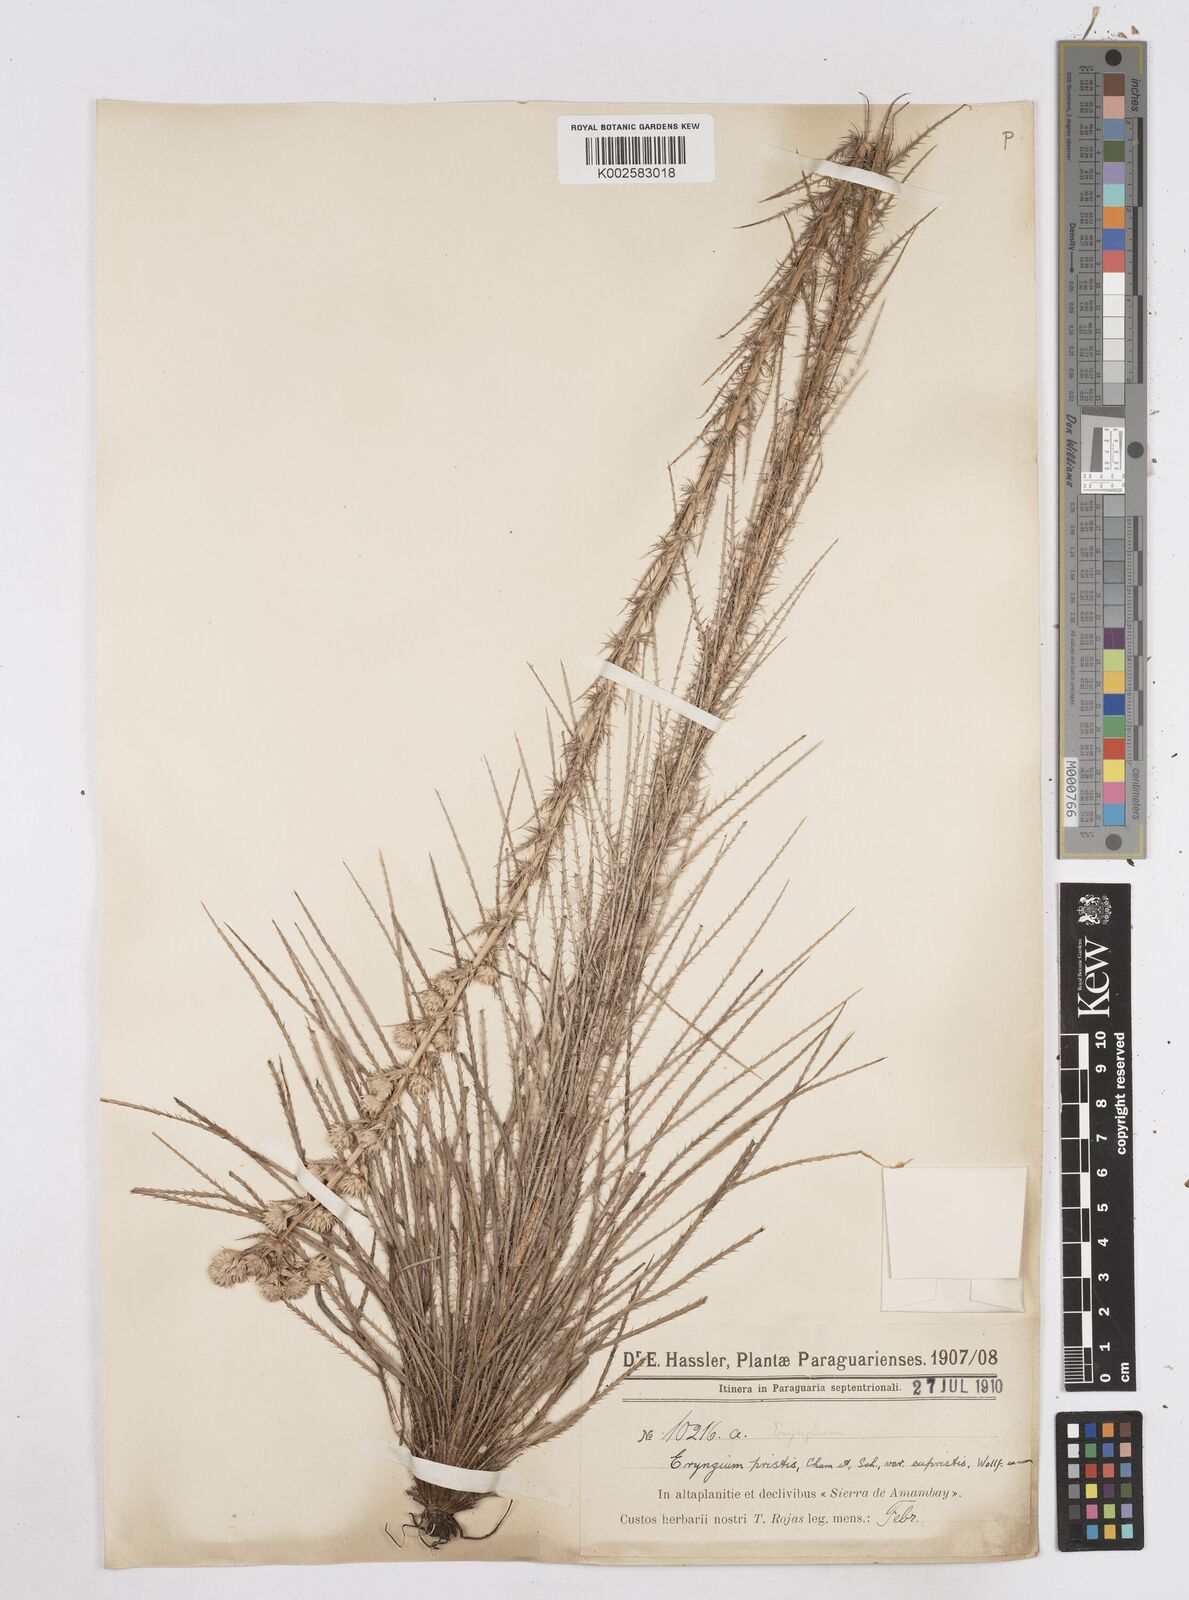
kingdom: Plantae
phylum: Tracheophyta
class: Magnoliopsida
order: Apiales
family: Apiaceae
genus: Eryngium
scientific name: Eryngium pristis
